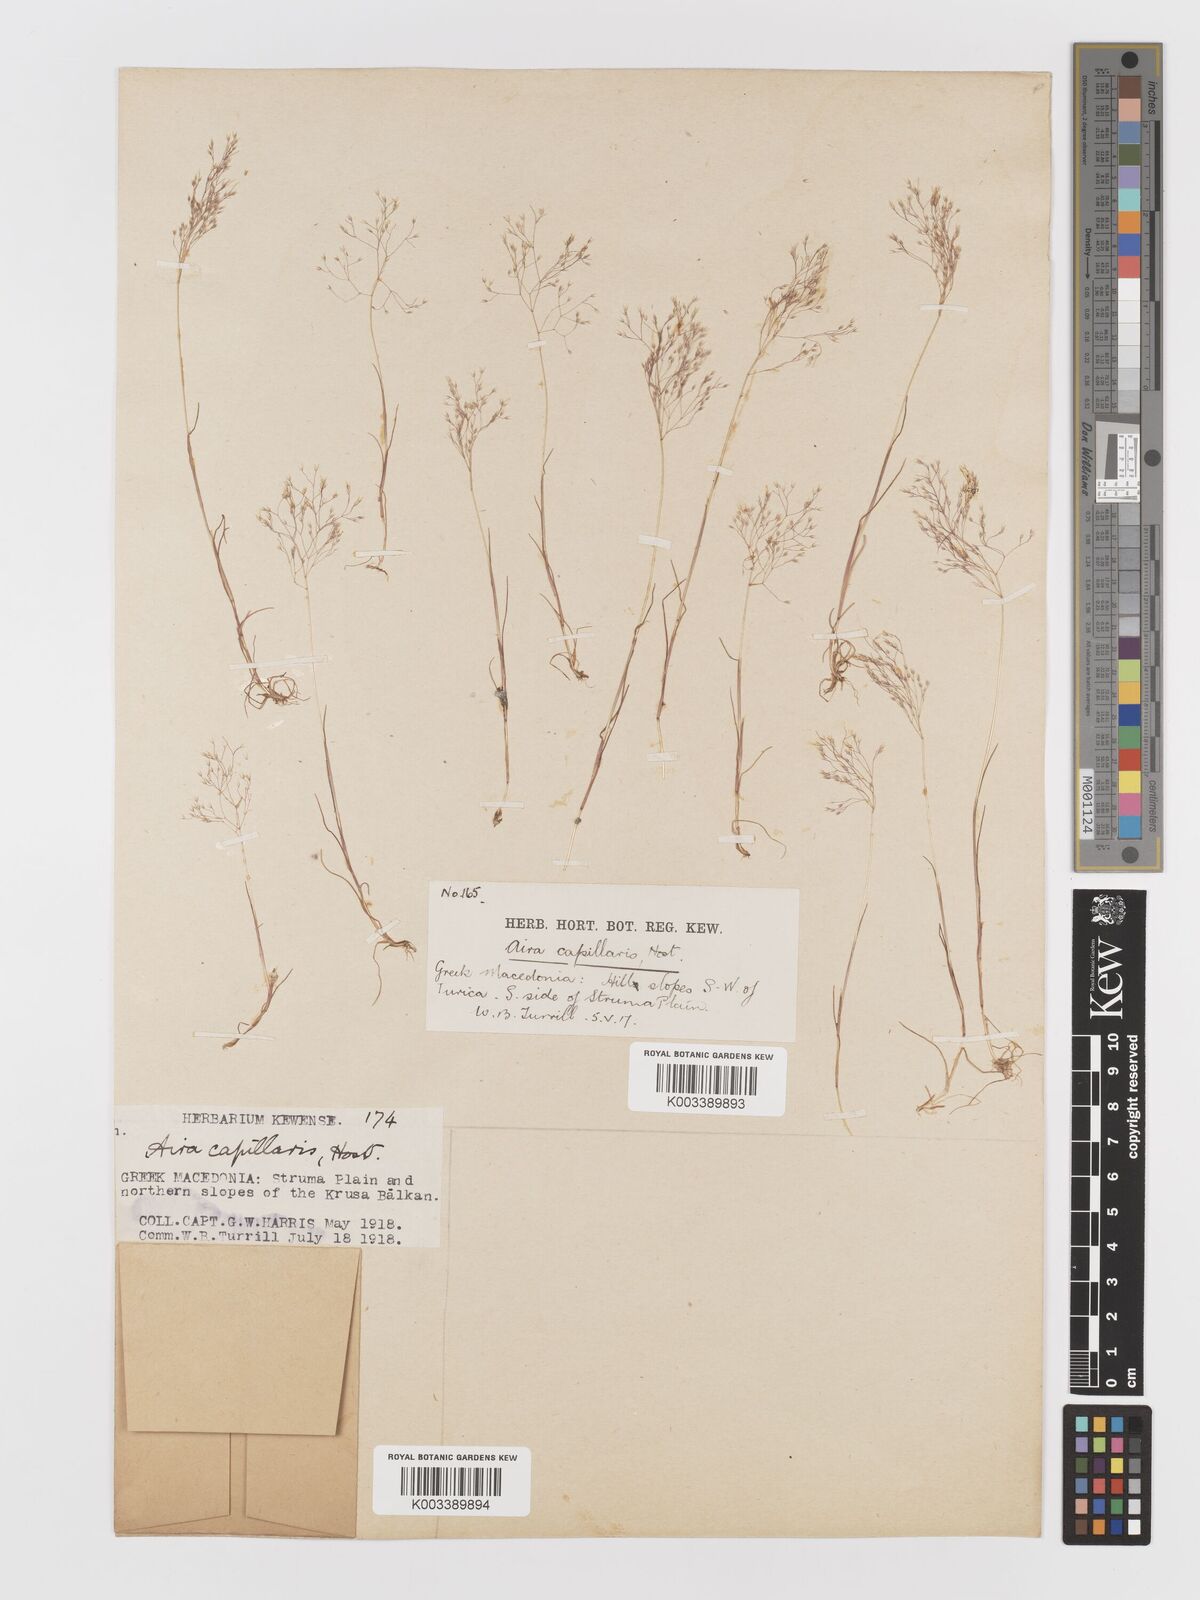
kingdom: Plantae
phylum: Tracheophyta
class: Liliopsida
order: Poales
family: Poaceae
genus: Aira
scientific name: Aira elegans
